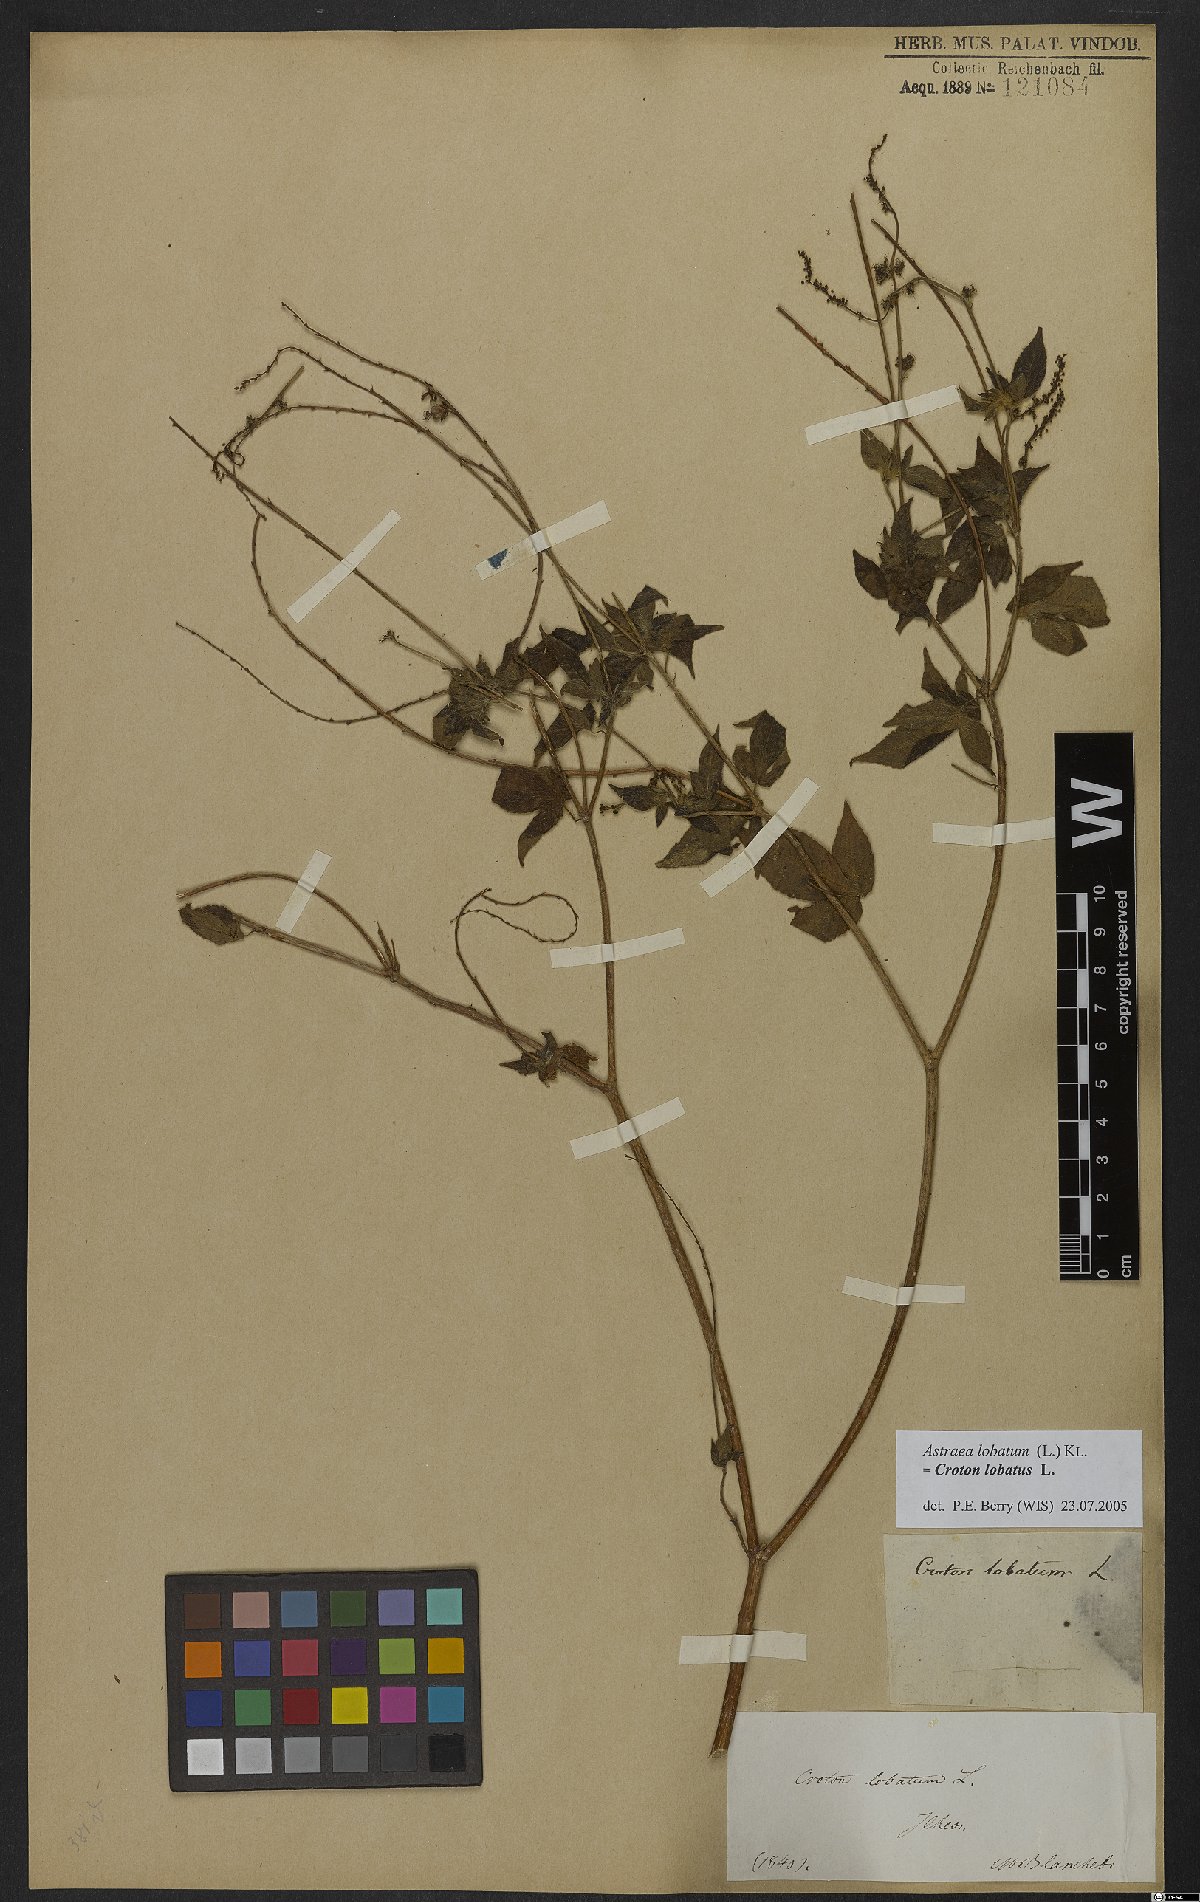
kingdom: Plantae
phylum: Tracheophyta
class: Magnoliopsida
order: Malpighiales
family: Euphorbiaceae
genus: Croton
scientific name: Croton lobatus
